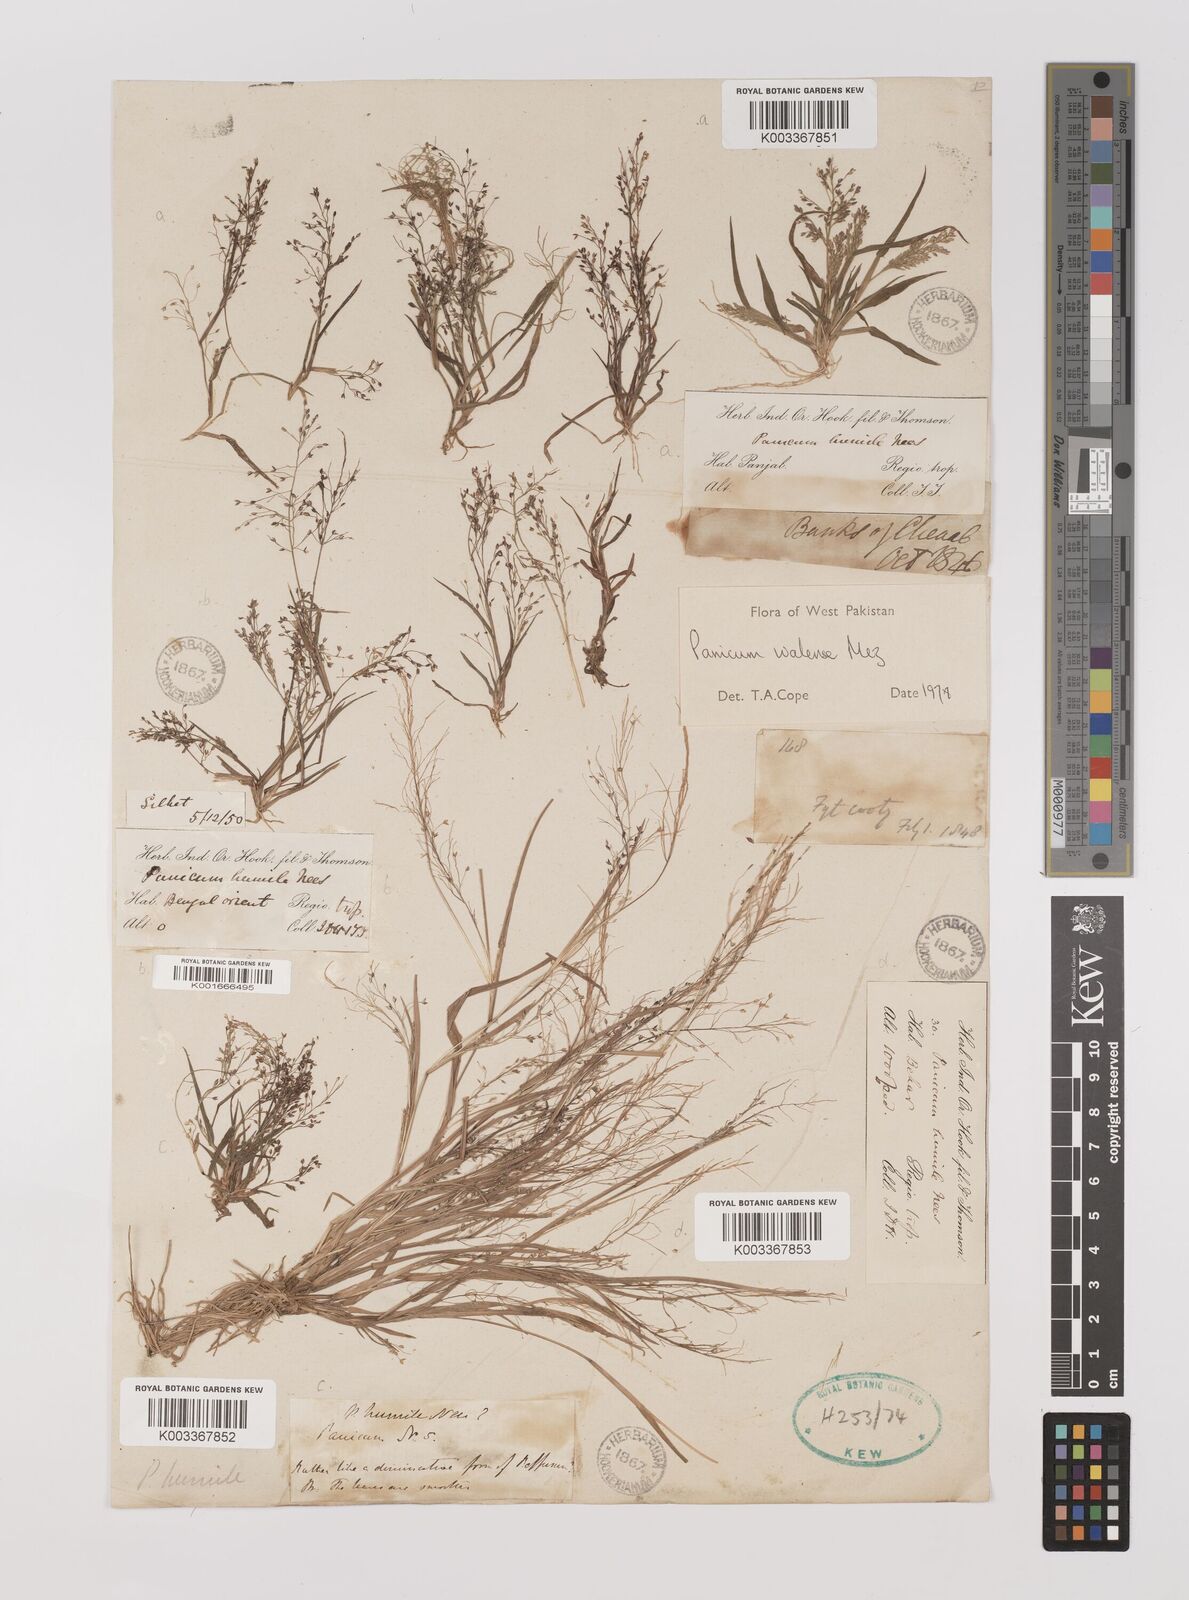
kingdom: Plantae
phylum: Tracheophyta
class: Liliopsida
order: Poales
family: Poaceae
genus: Panicum
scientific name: Panicum humile
